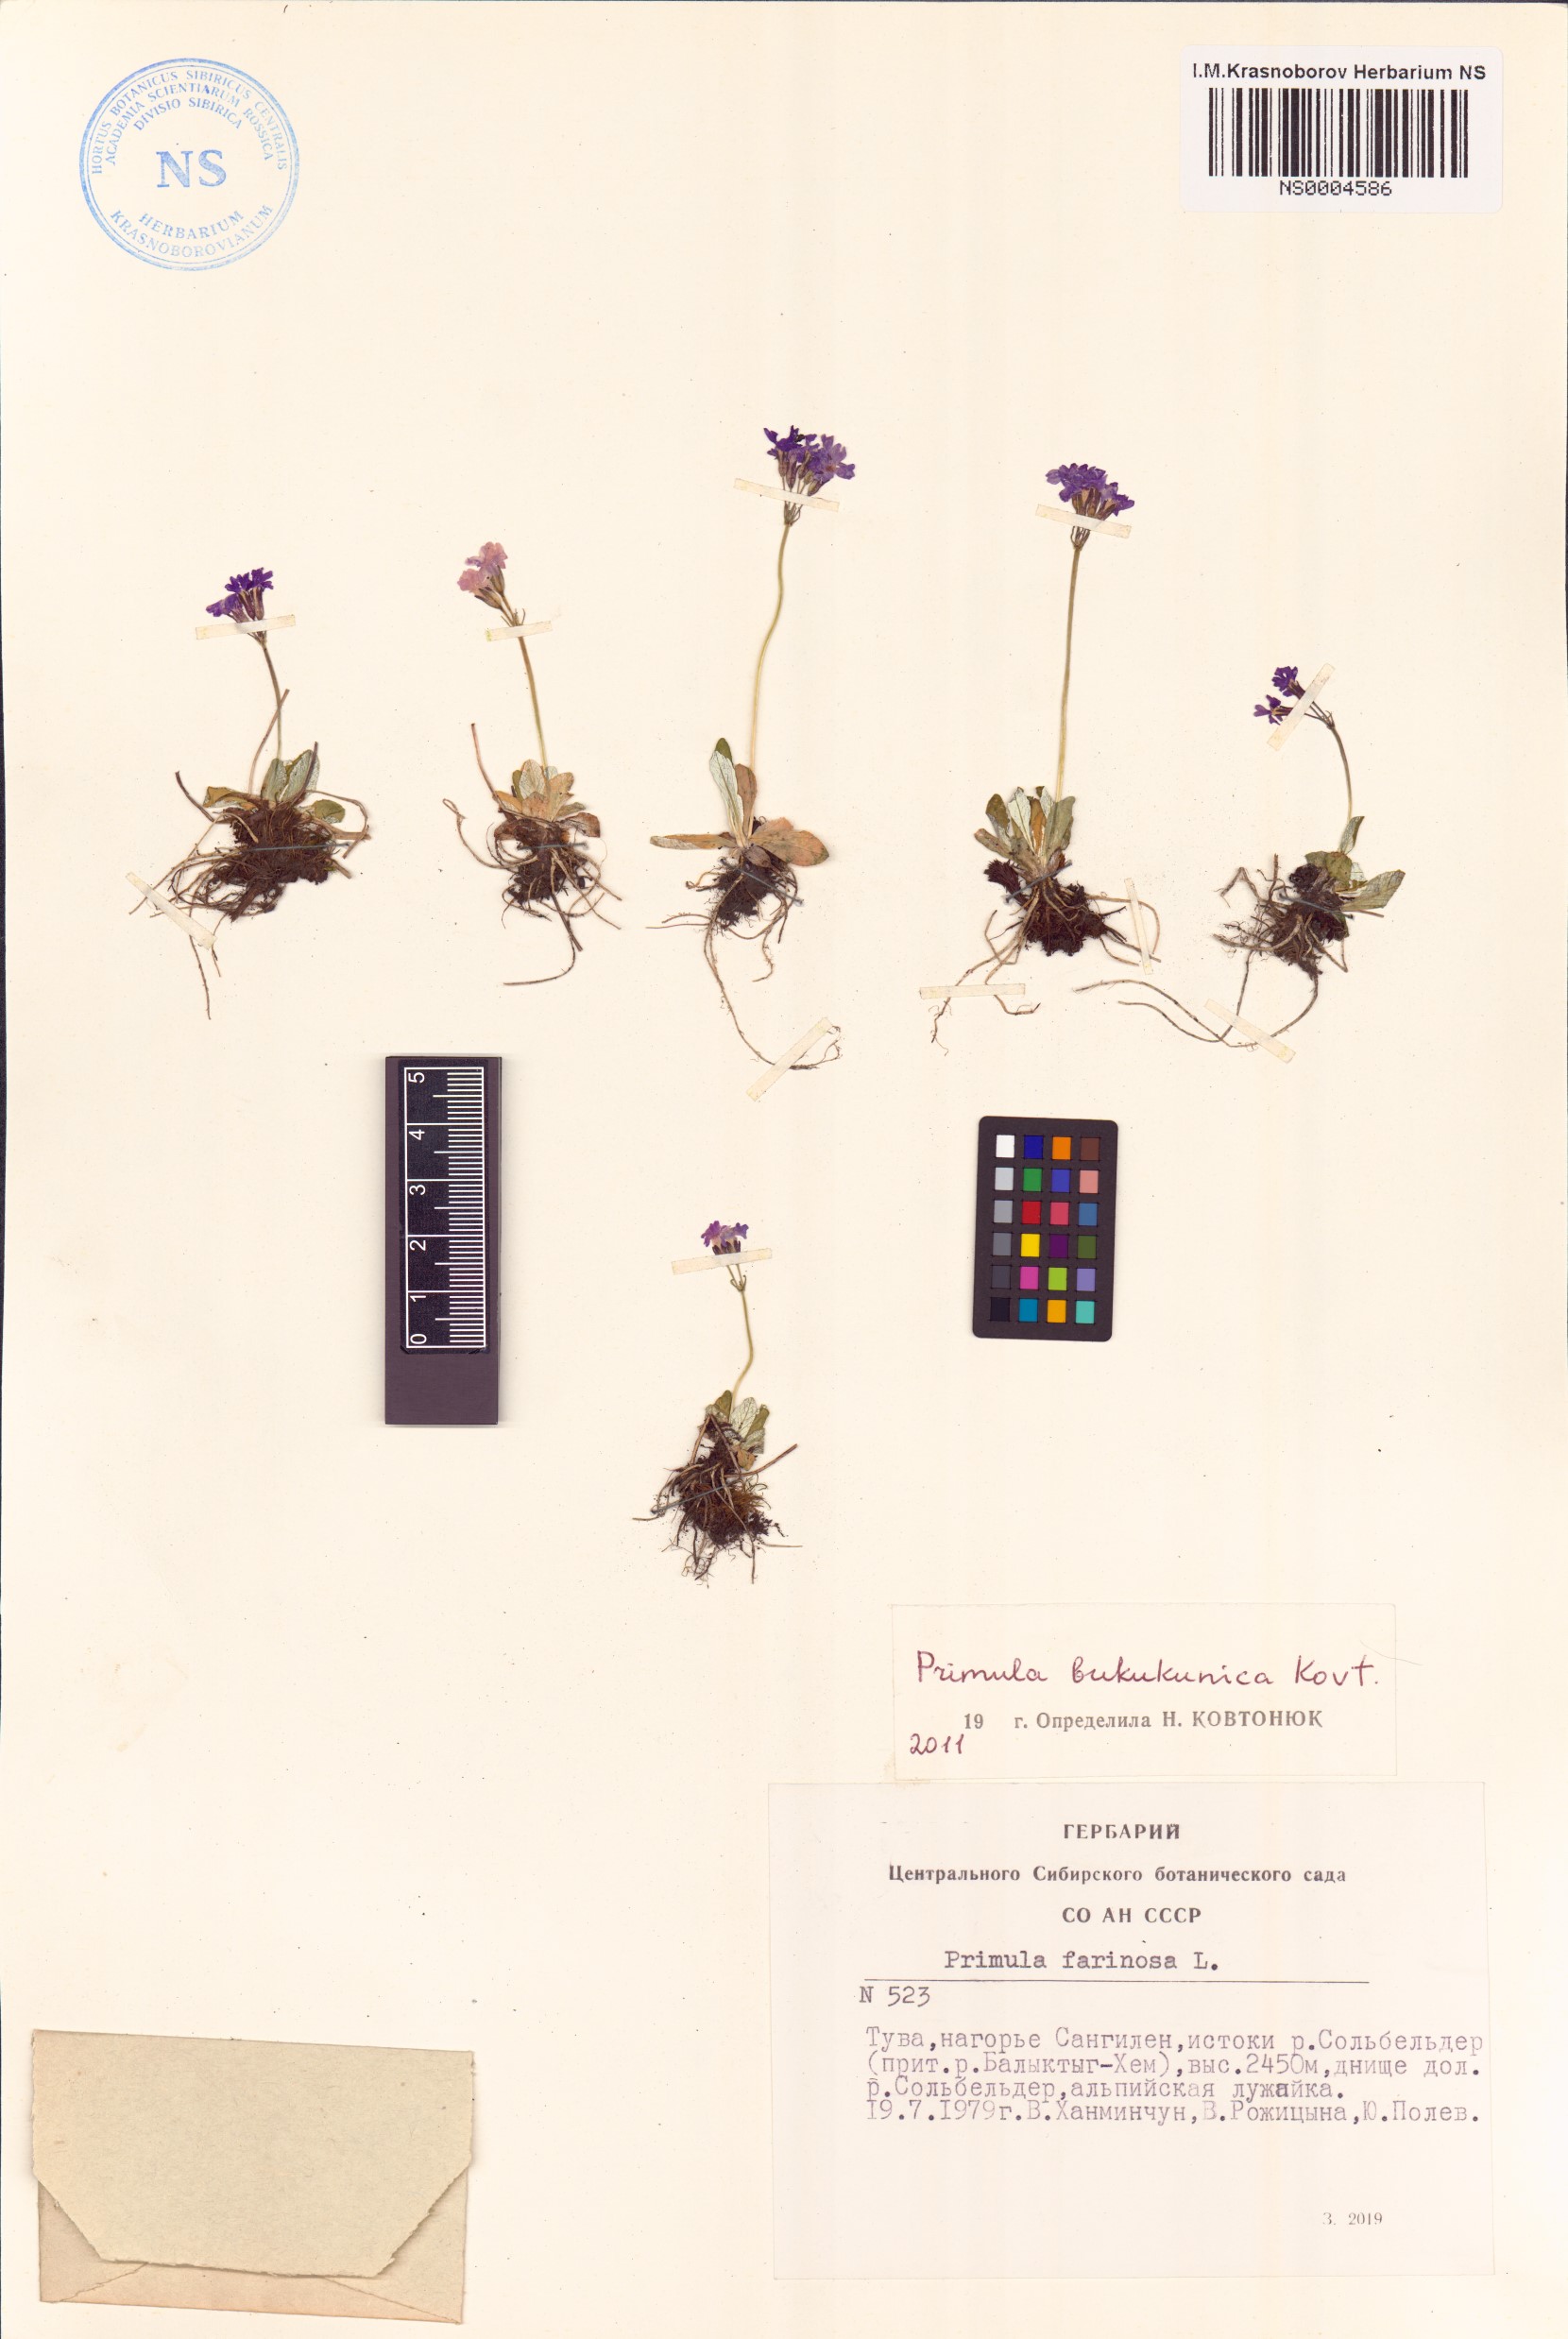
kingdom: Plantae
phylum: Tracheophyta
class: Magnoliopsida
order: Ericales
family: Primulaceae
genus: Primula
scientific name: Primula bukukunica
